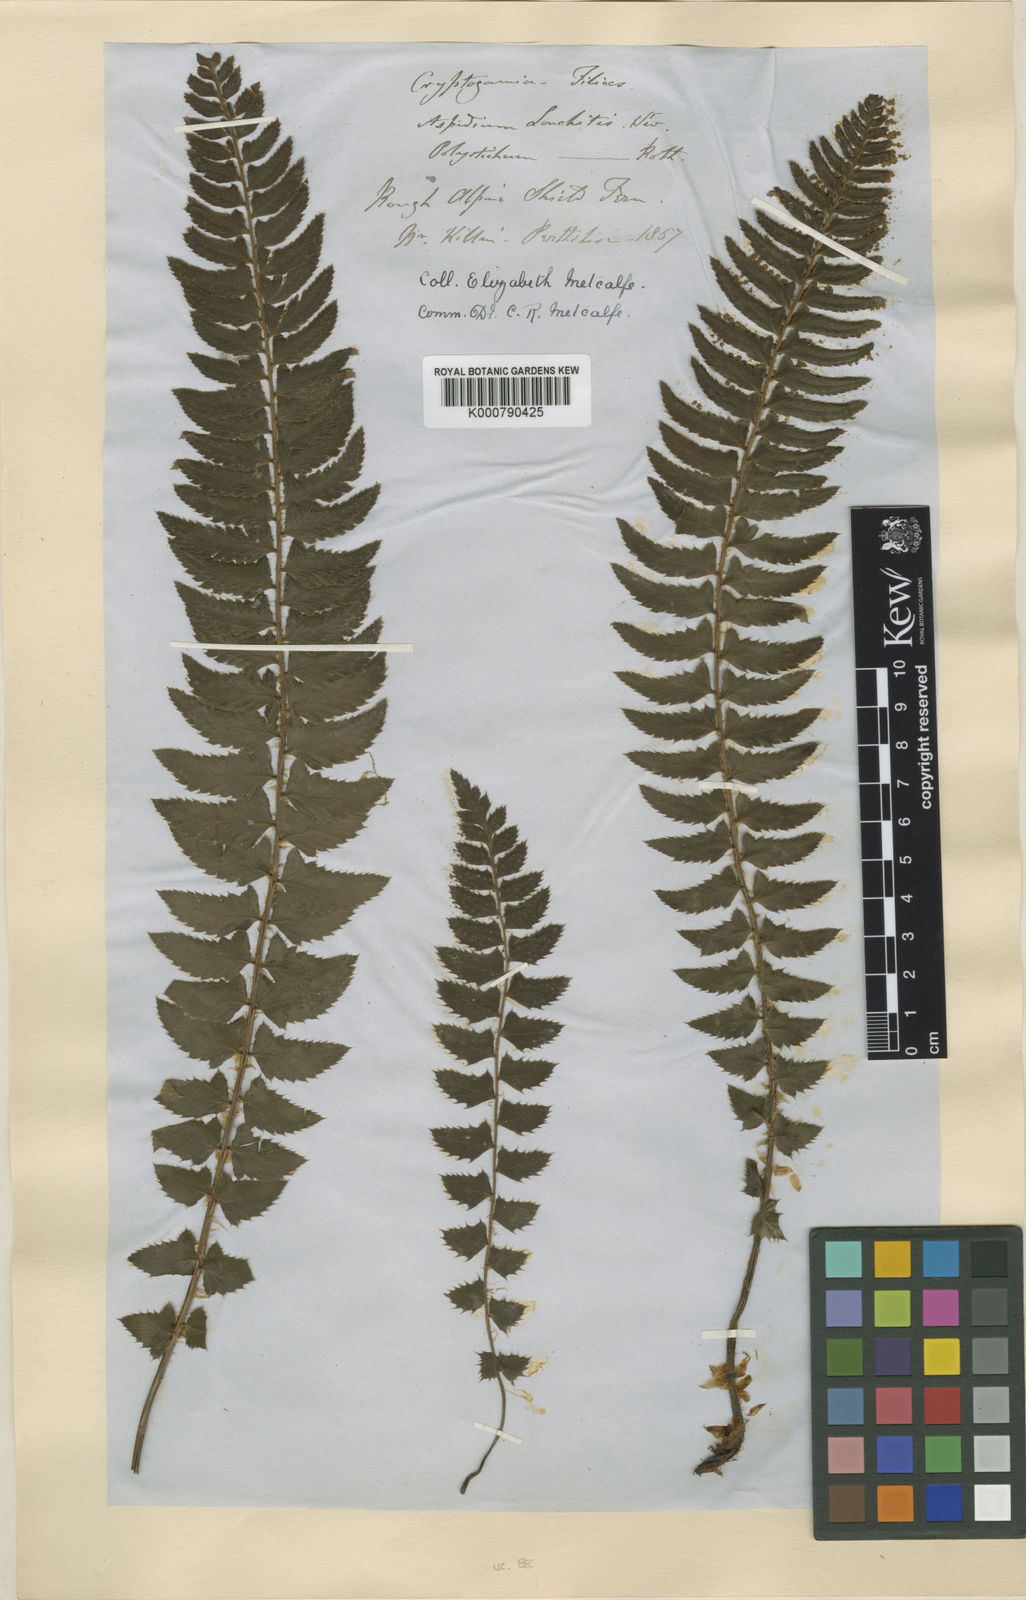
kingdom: Plantae
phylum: Tracheophyta
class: Polypodiopsida
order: Polypodiales
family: Dryopteridaceae
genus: Polystichum
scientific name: Polystichum
